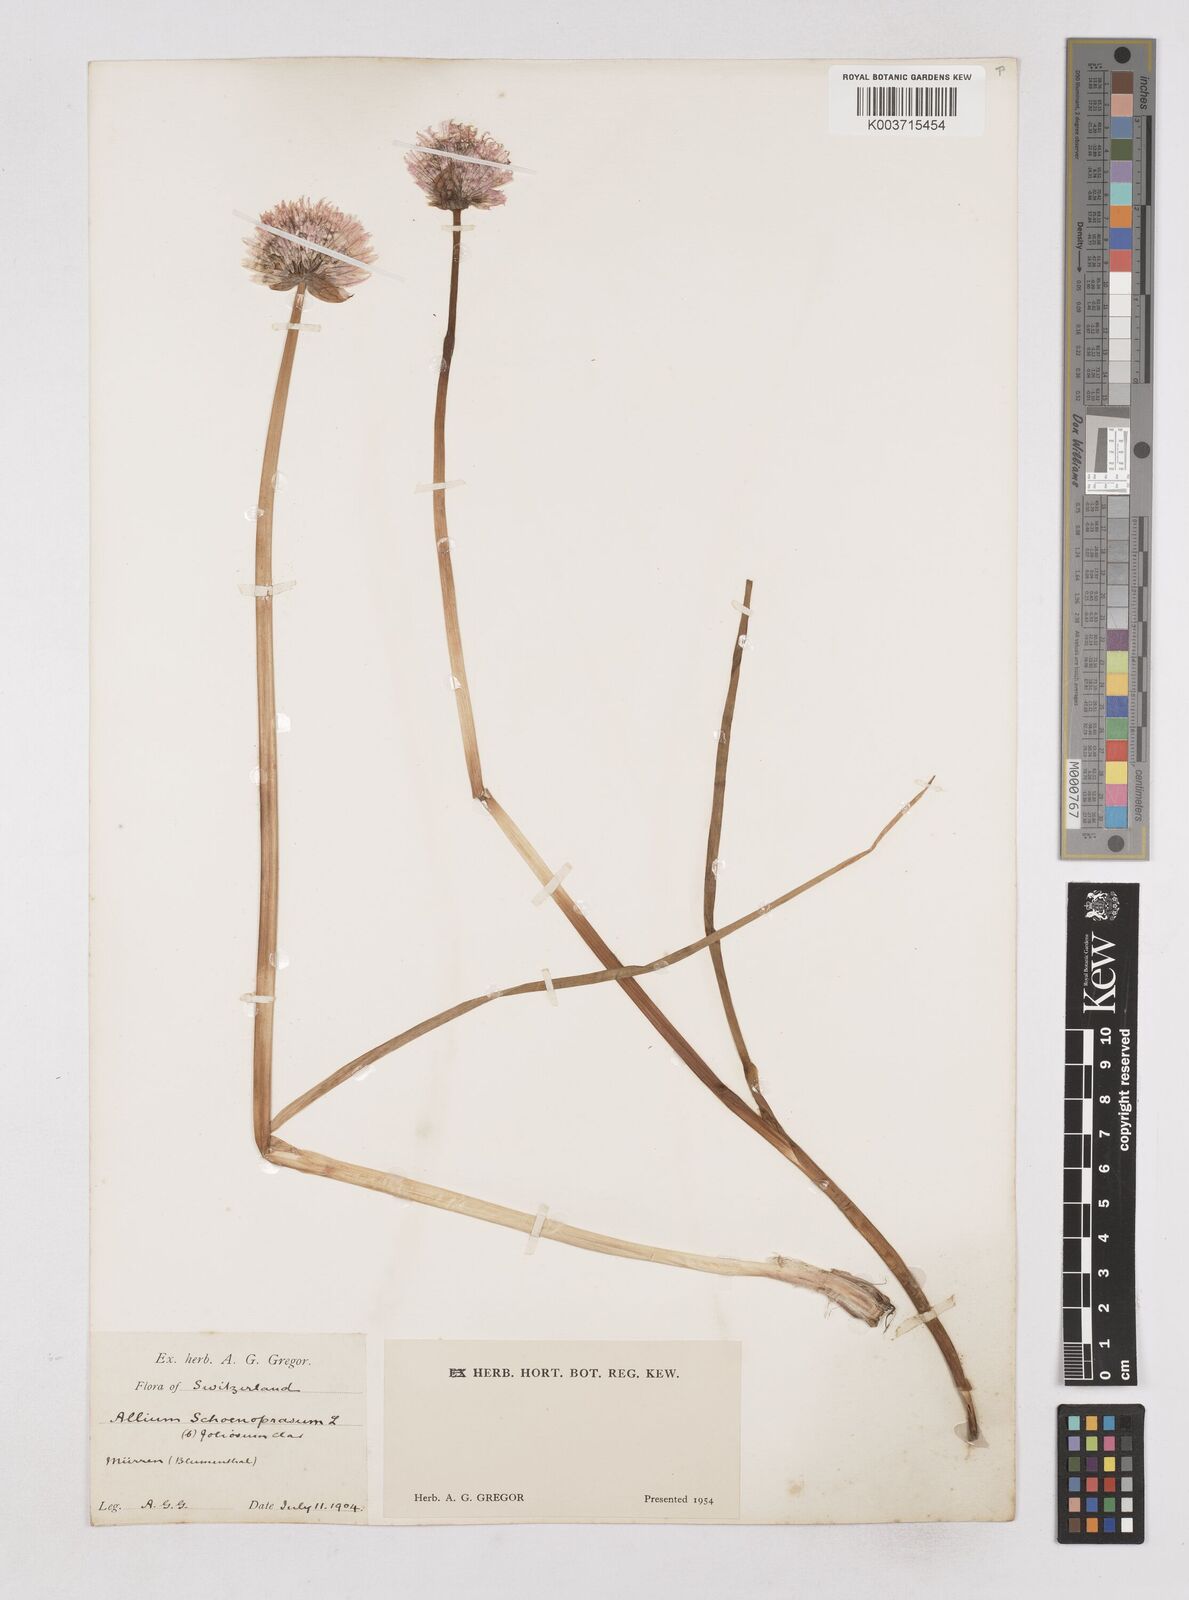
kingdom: Plantae
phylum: Tracheophyta
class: Liliopsida
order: Asparagales
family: Amaryllidaceae
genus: Allium
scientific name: Allium schoenoprasum
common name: Chives
